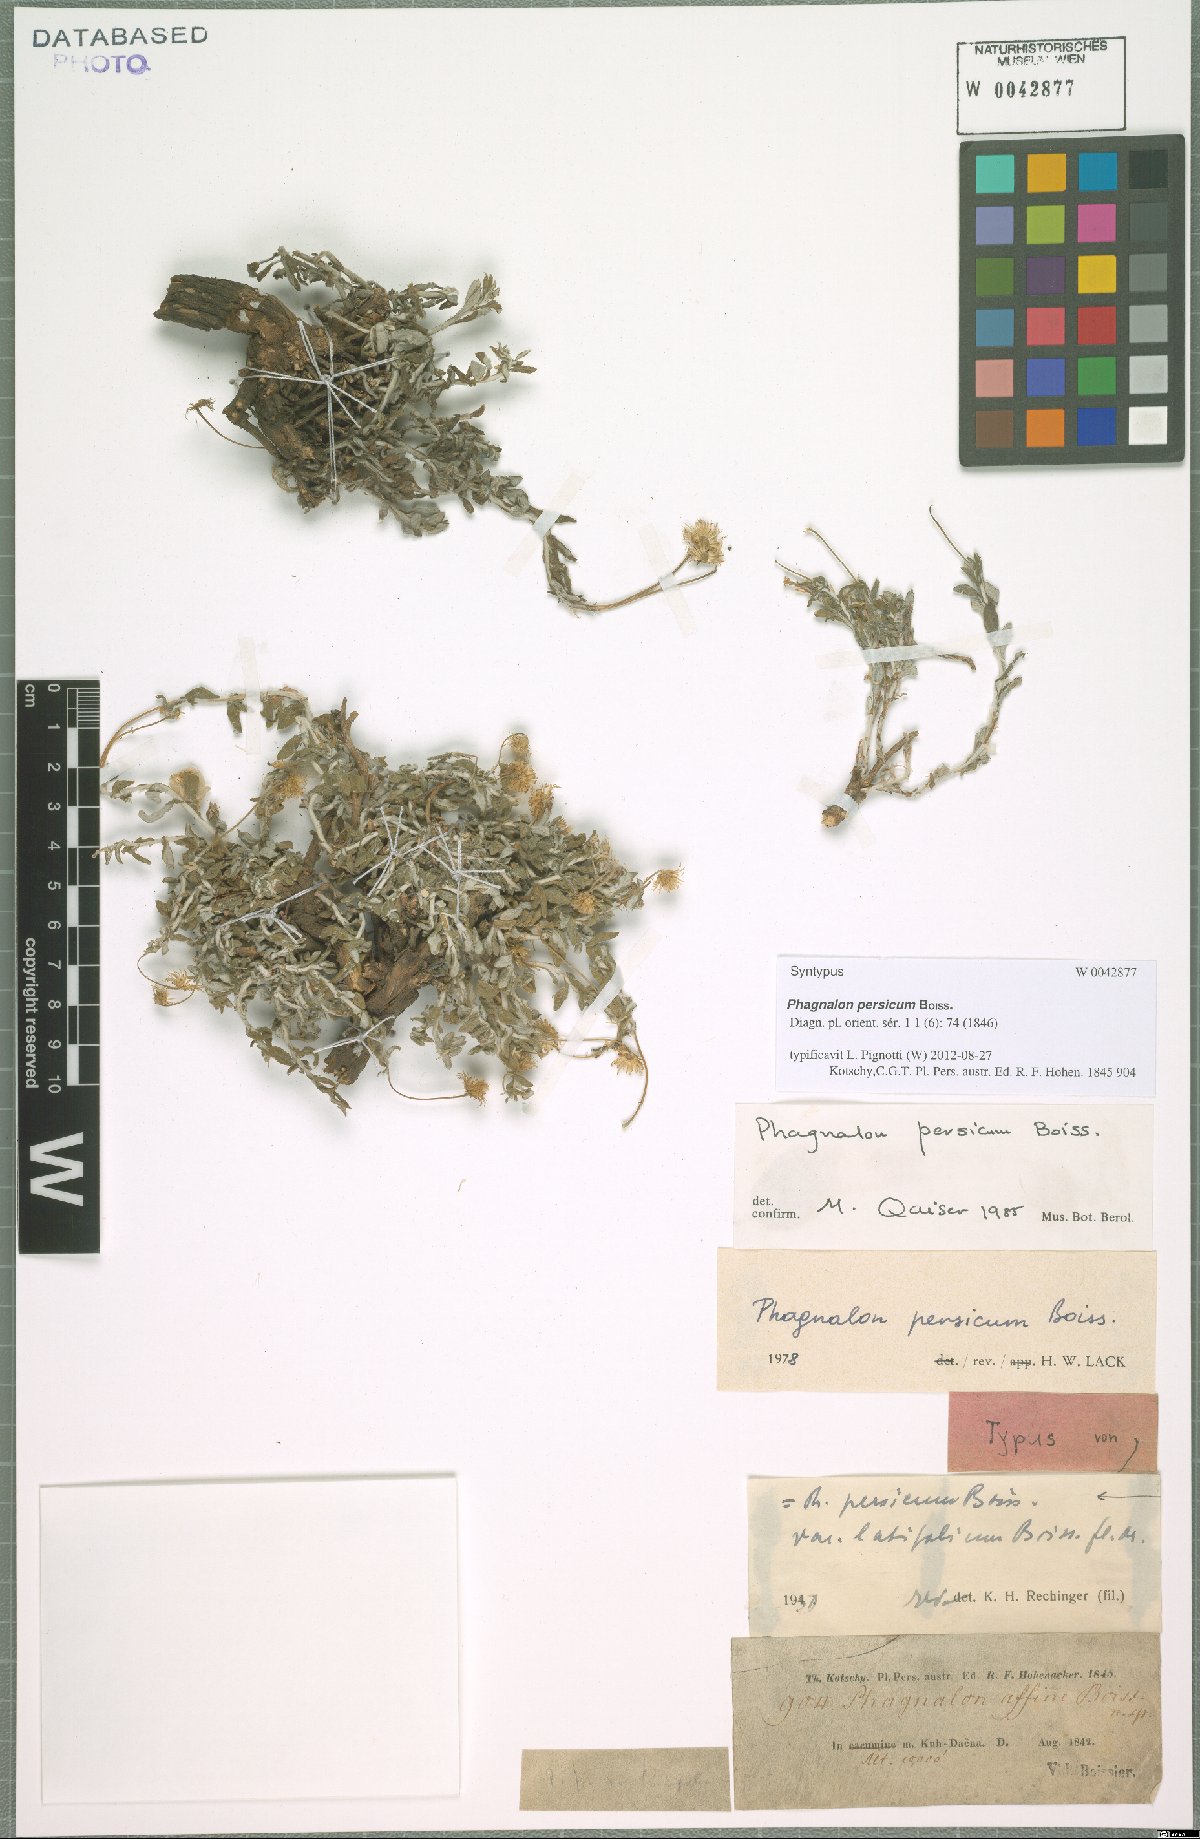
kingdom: Plantae
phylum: Tracheophyta
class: Magnoliopsida
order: Asterales
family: Asteraceae
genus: Phagnalon
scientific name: Phagnalon persicum
